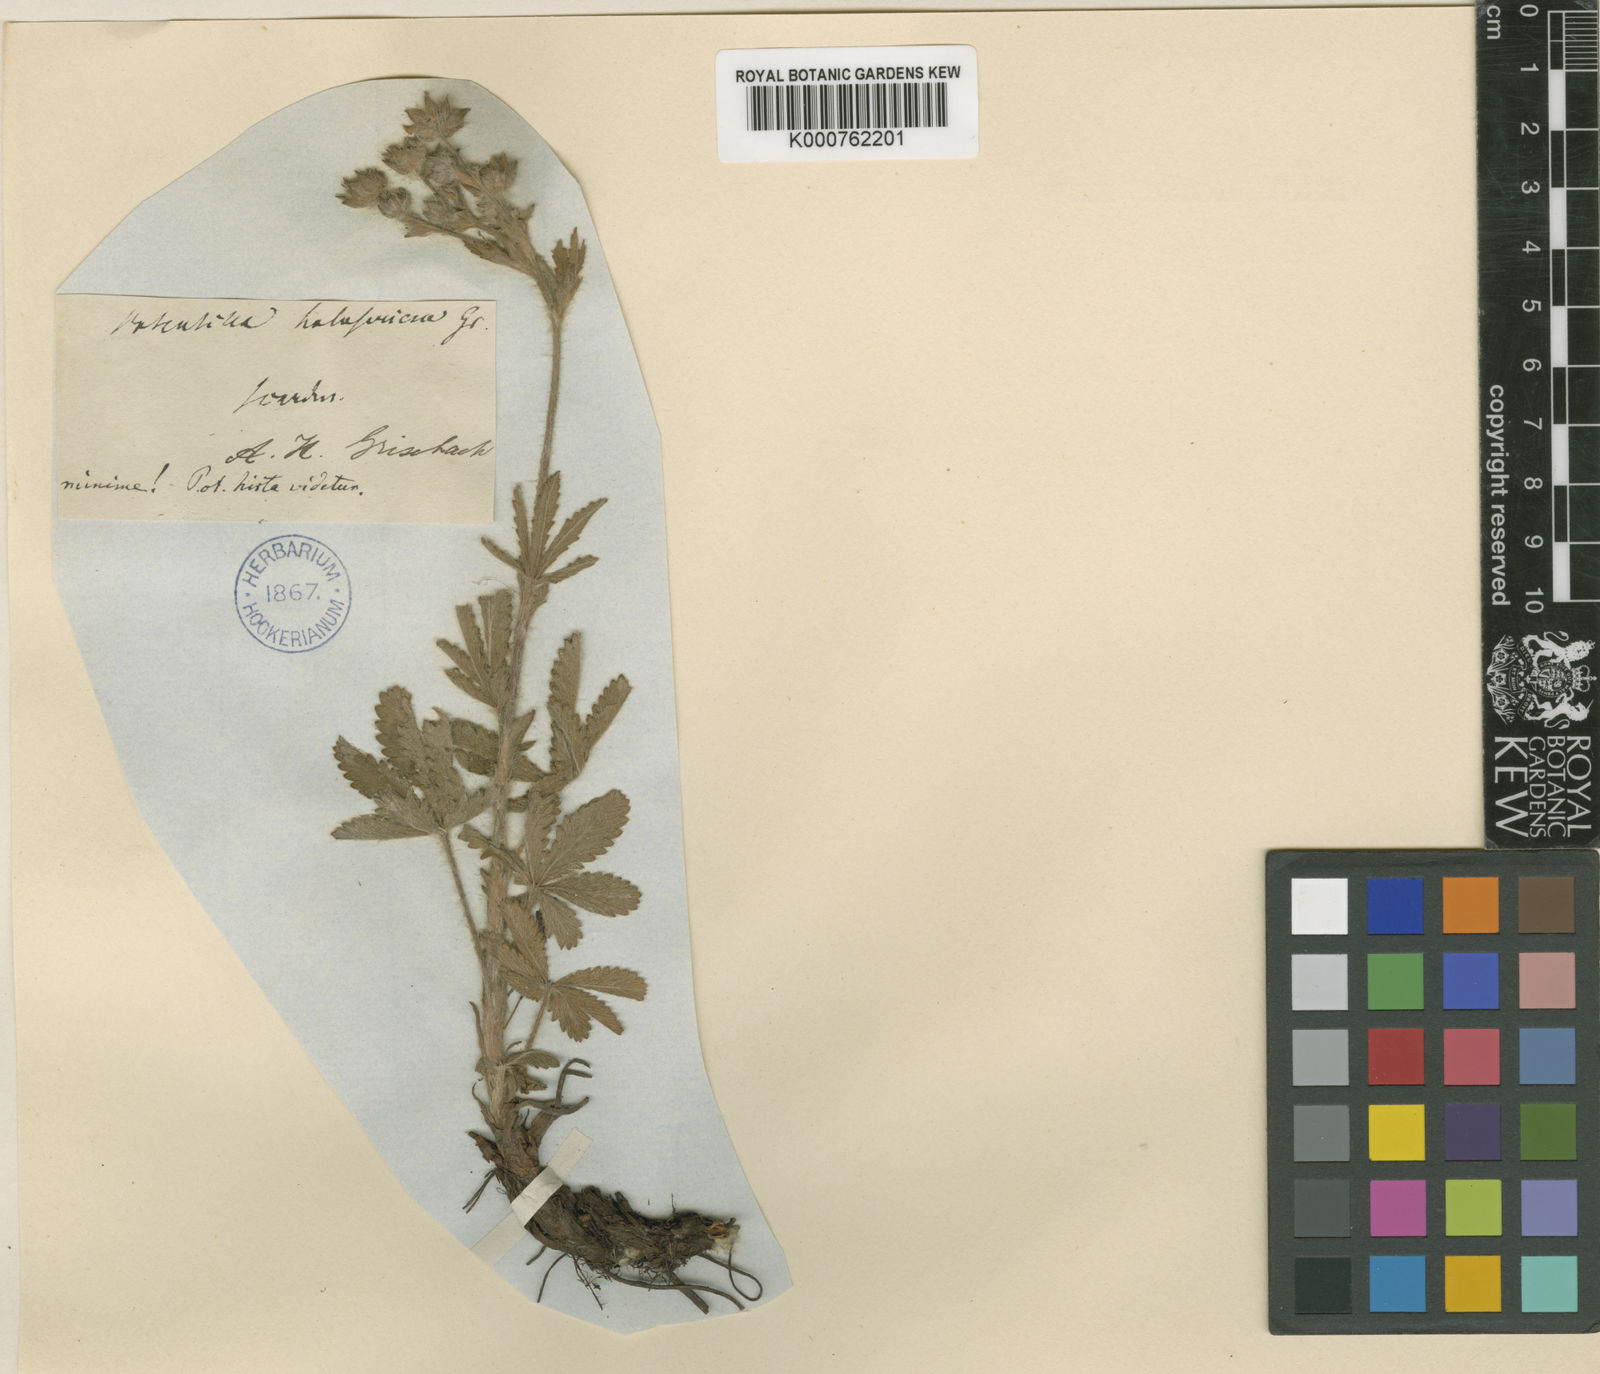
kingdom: Plantae
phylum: Tracheophyta
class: Magnoliopsida
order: Rosales
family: Rosaceae
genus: Potentilla
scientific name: Potentilla detommasii
